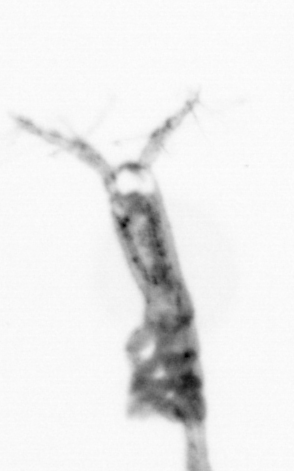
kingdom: Animalia
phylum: Arthropoda
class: Copepoda
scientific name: Copepoda
